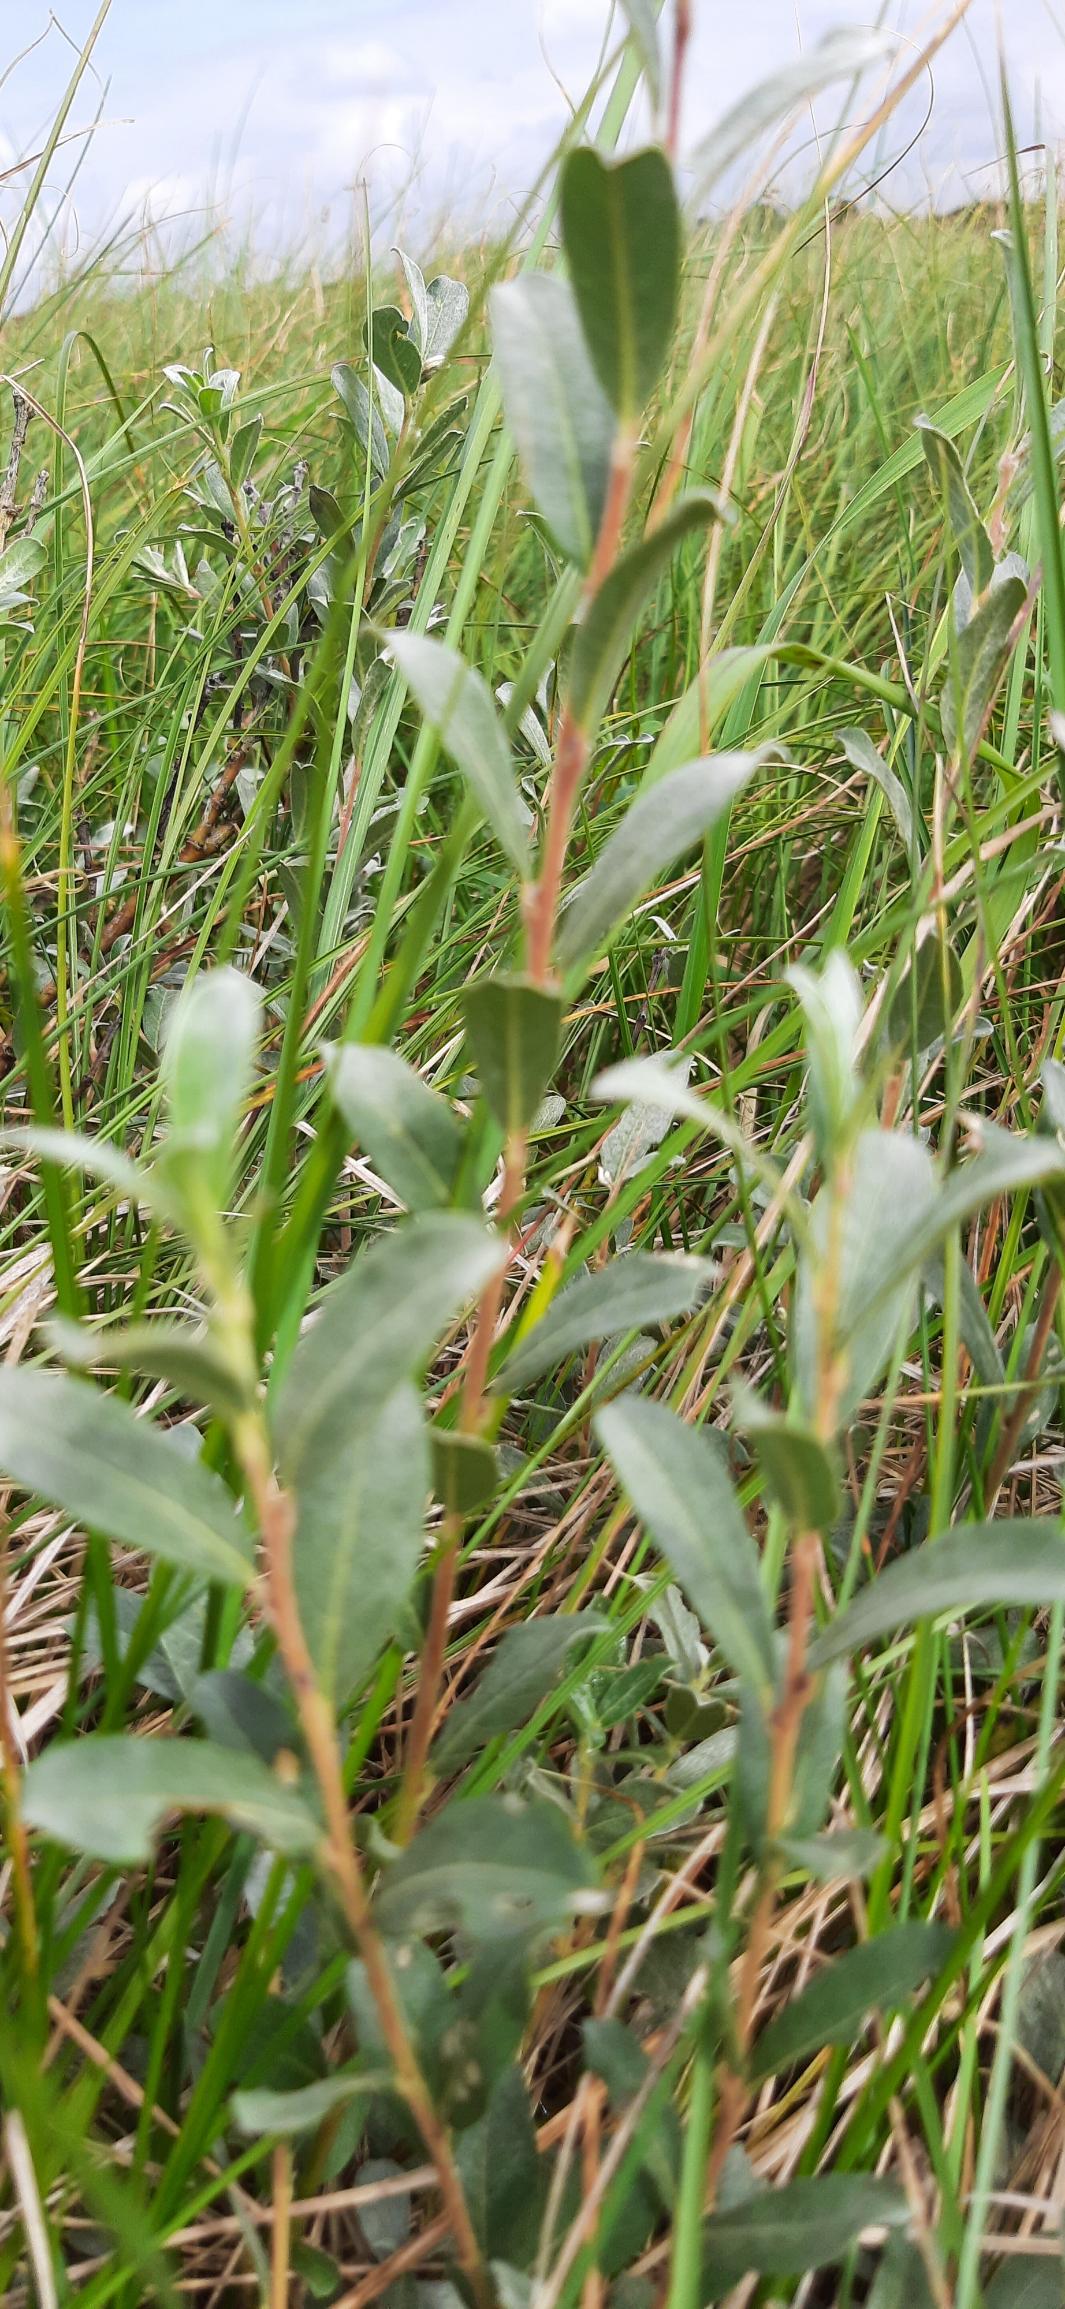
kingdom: Plantae
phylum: Tracheophyta
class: Magnoliopsida
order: Malpighiales
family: Salicaceae
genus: Salix
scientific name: Salix repens
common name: Krybende pil
